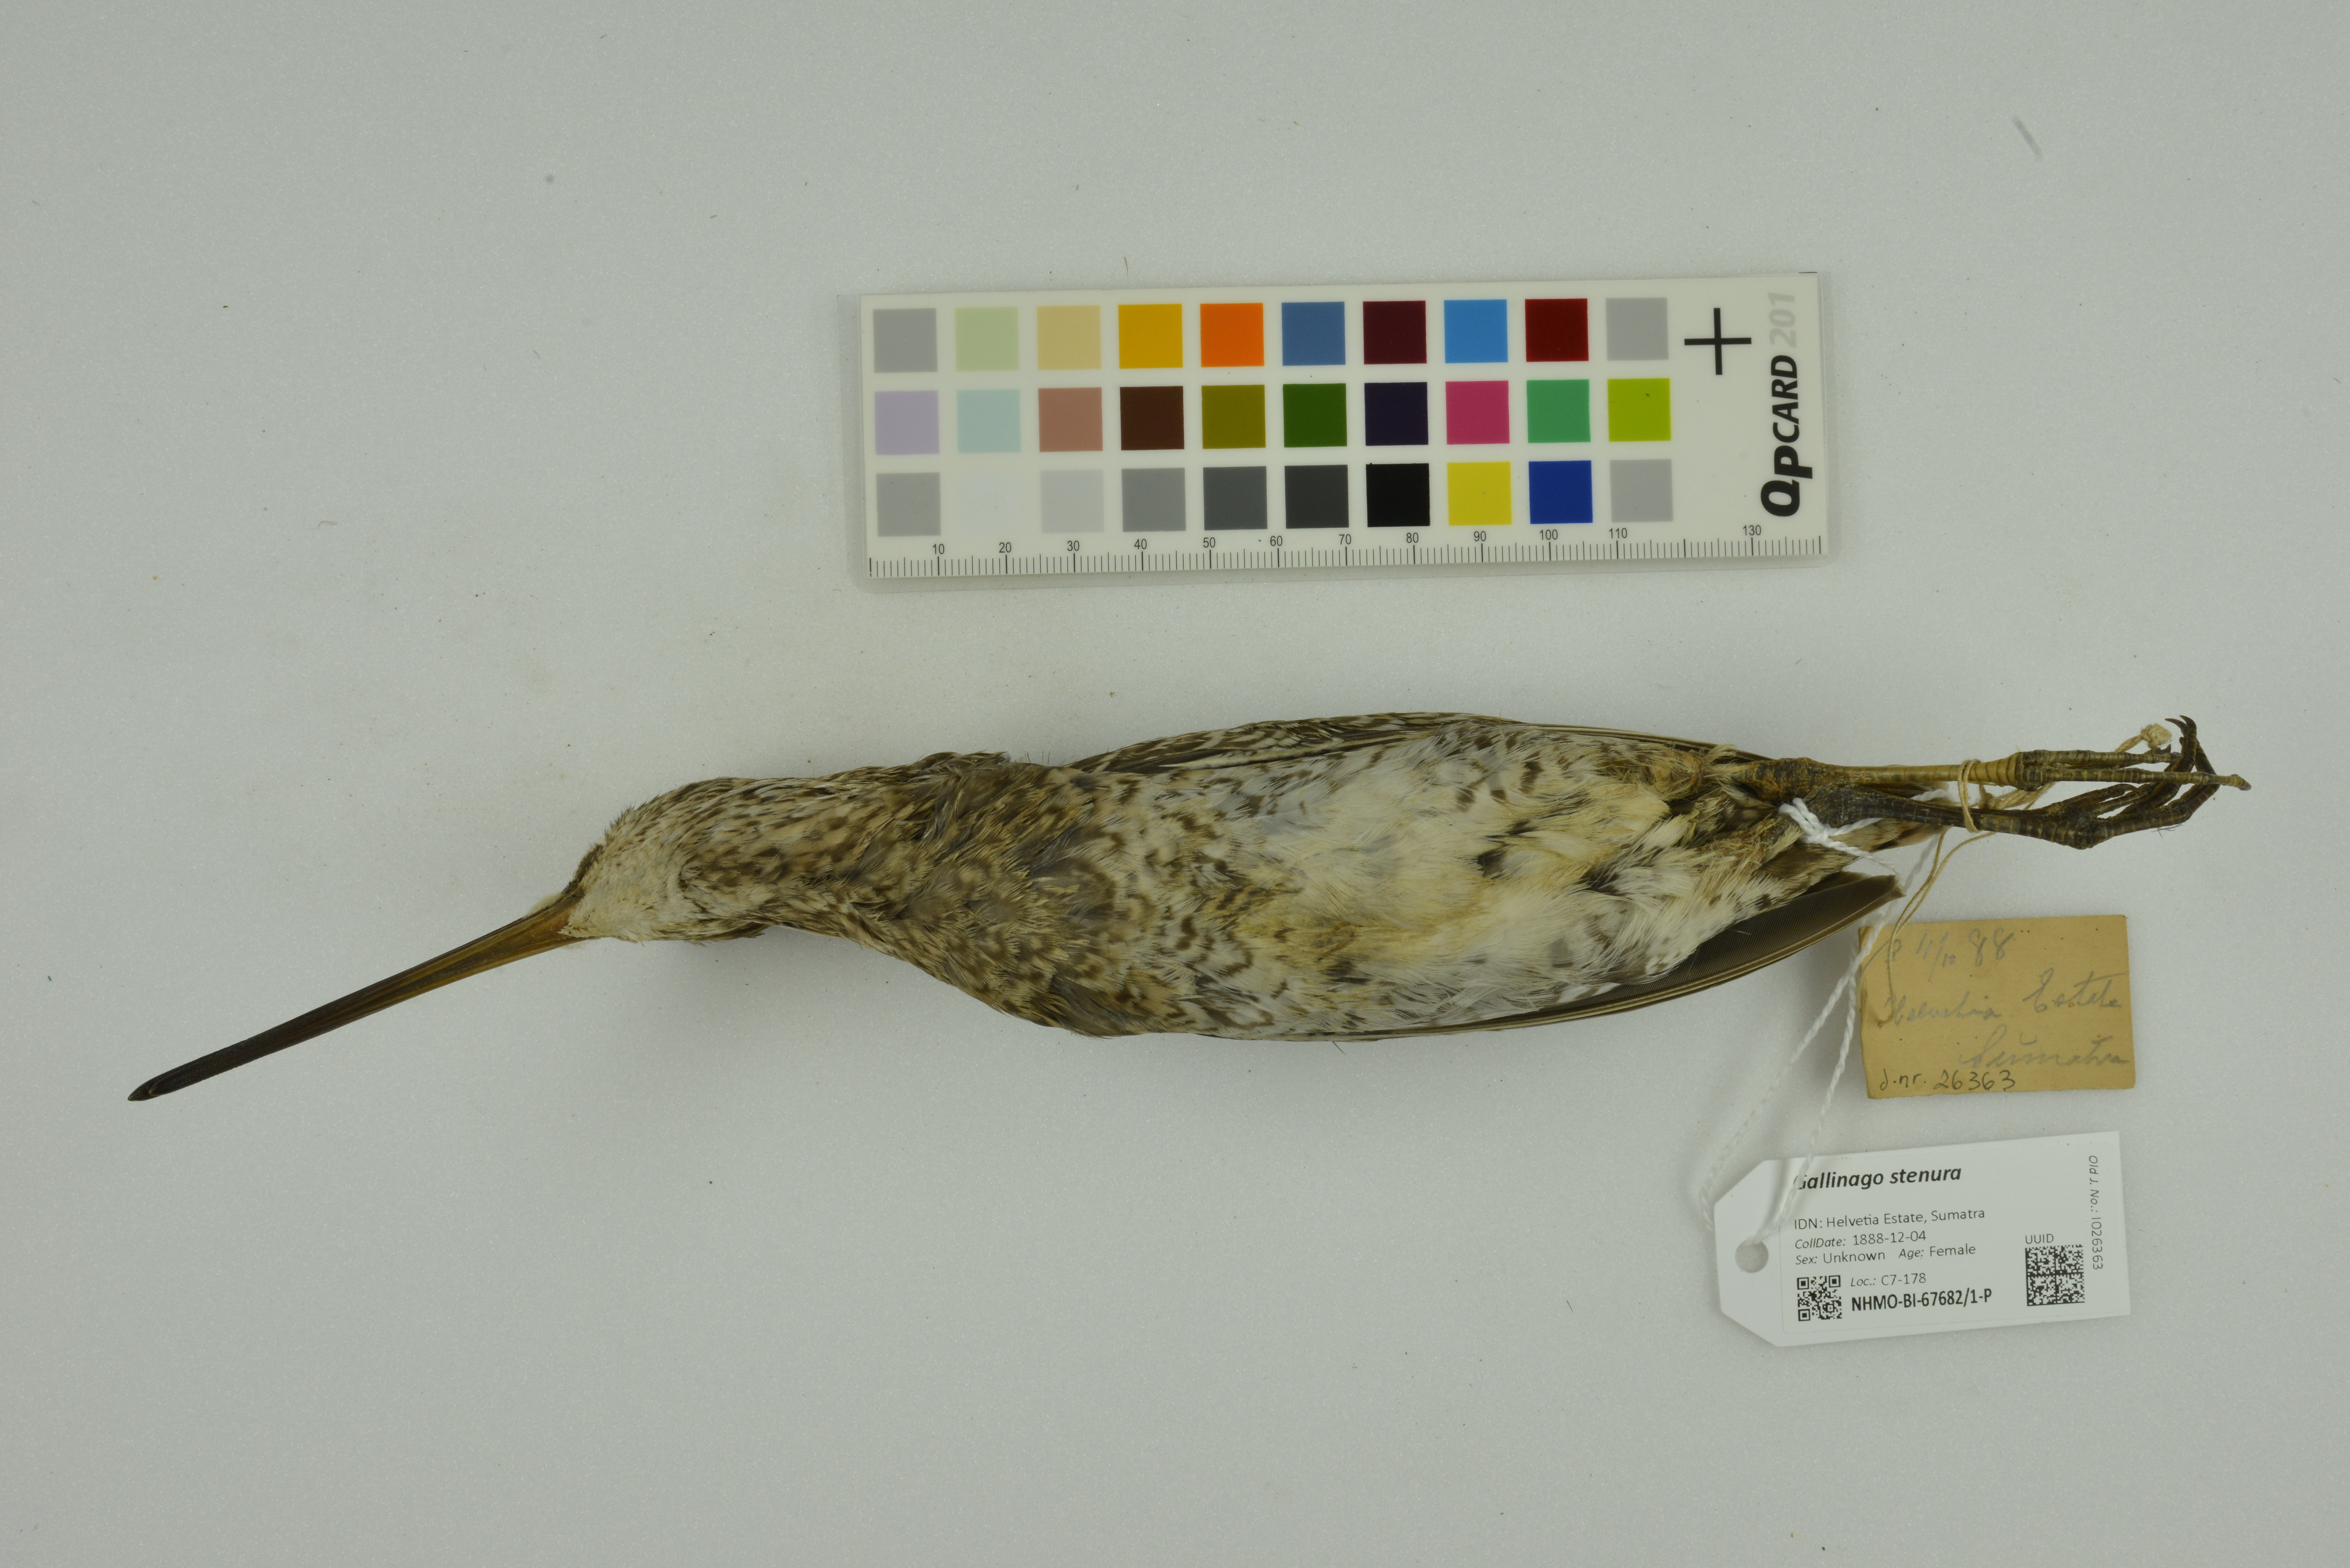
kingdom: Animalia
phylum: Chordata
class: Aves
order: Charadriiformes
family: Scolopacidae
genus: Gallinago
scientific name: Gallinago stenura
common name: Pin-tailed snipe
